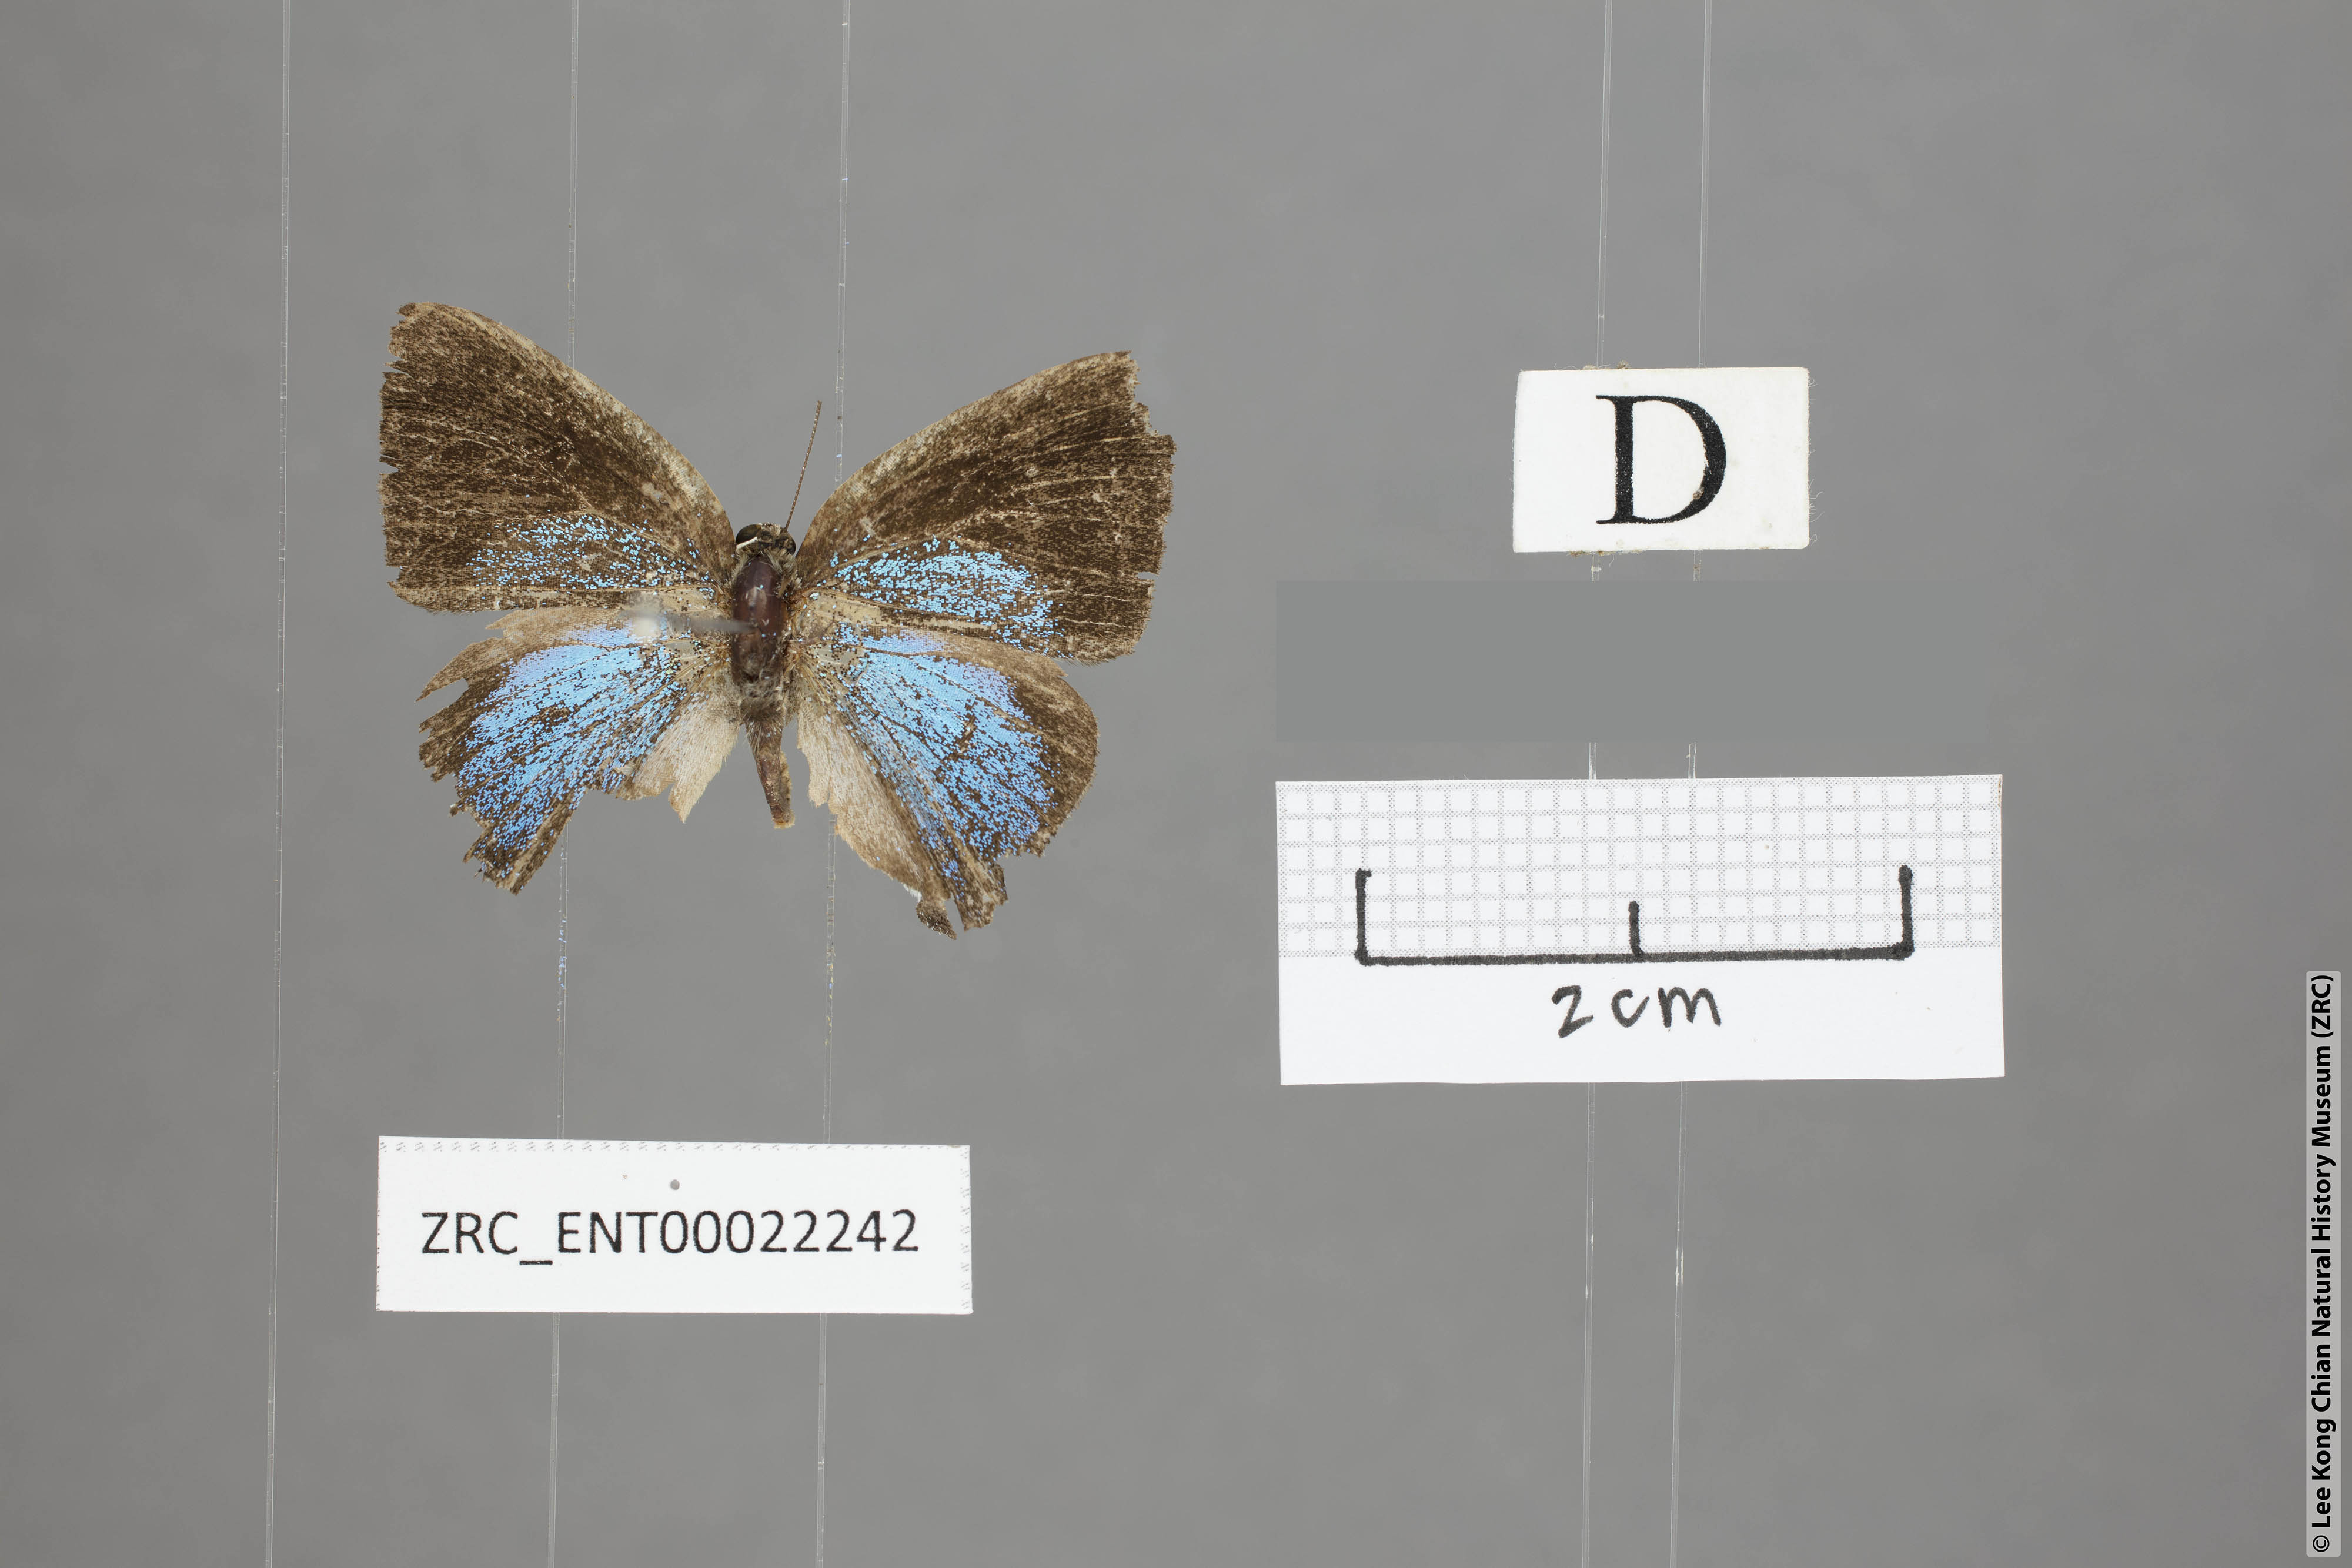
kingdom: Animalia
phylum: Arthropoda
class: Insecta
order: Lepidoptera
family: Lycaenidae
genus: Tajuria
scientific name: Tajuria yajna
